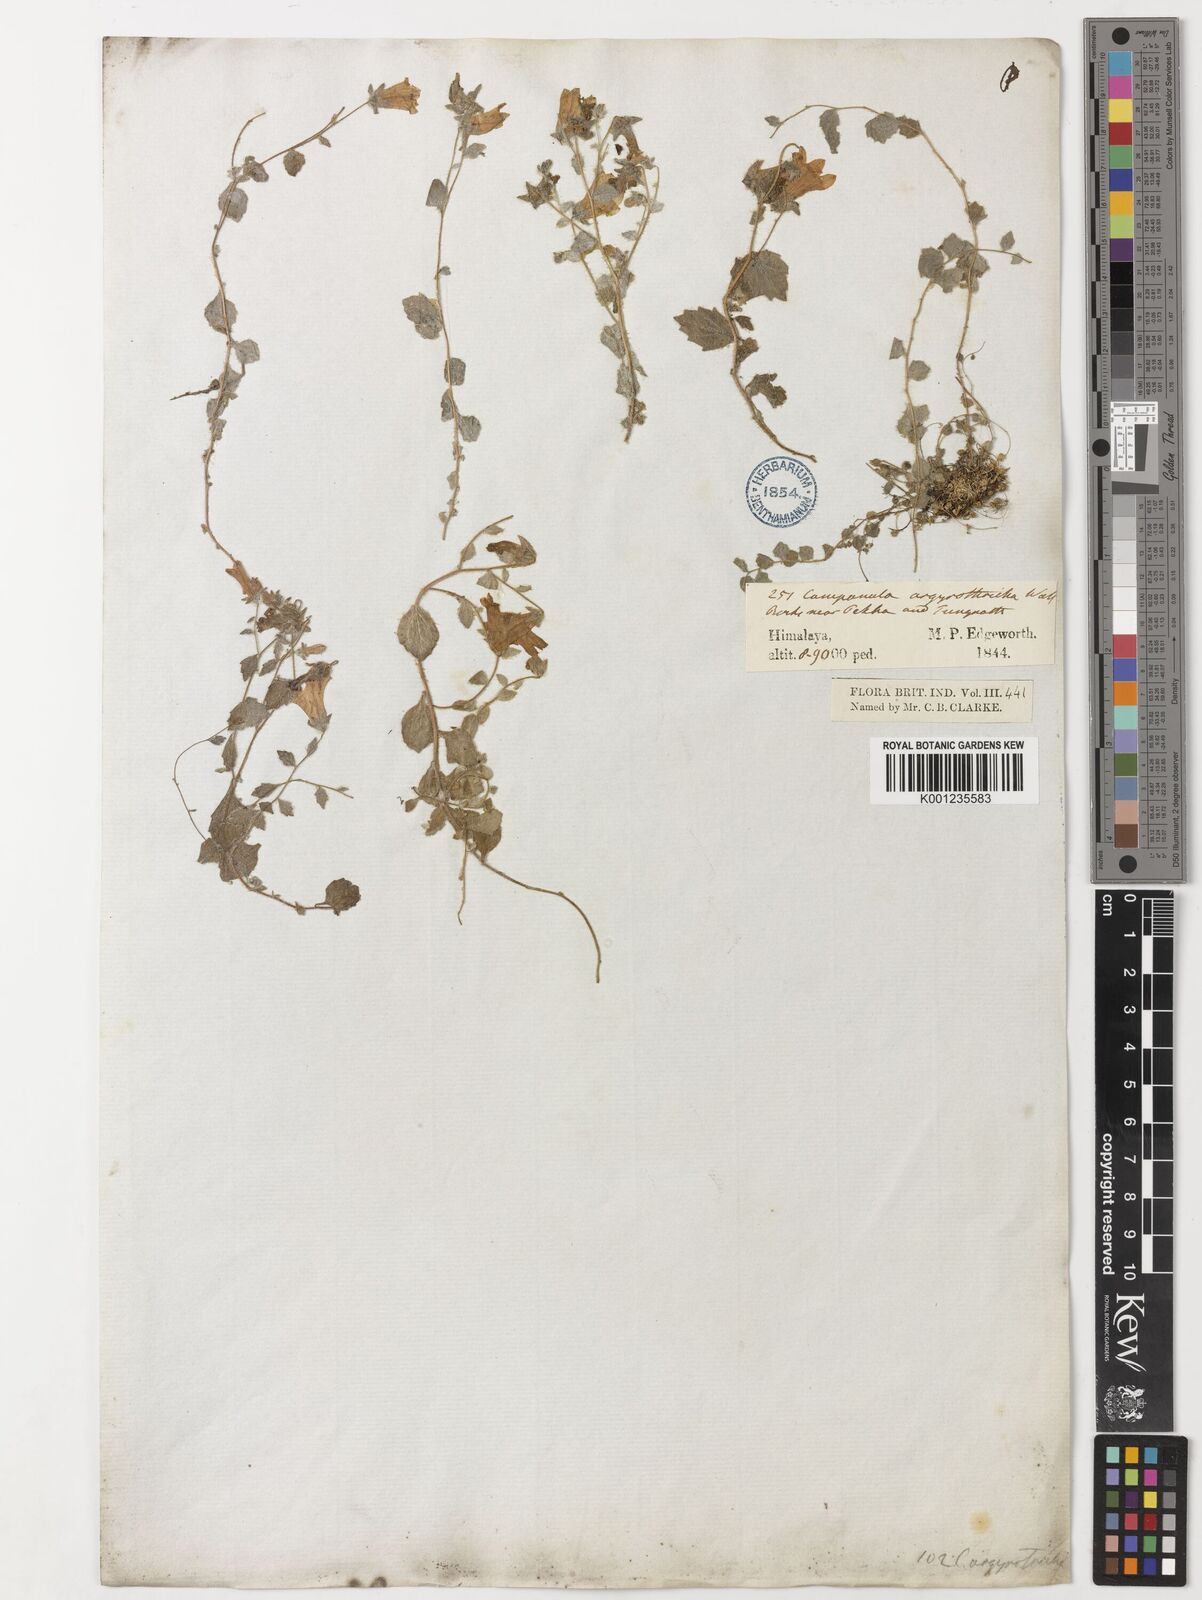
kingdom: Plantae
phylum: Tracheophyta
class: Magnoliopsida
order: Asterales
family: Campanulaceae
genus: Campanula
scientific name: Campanula argyrotricha
